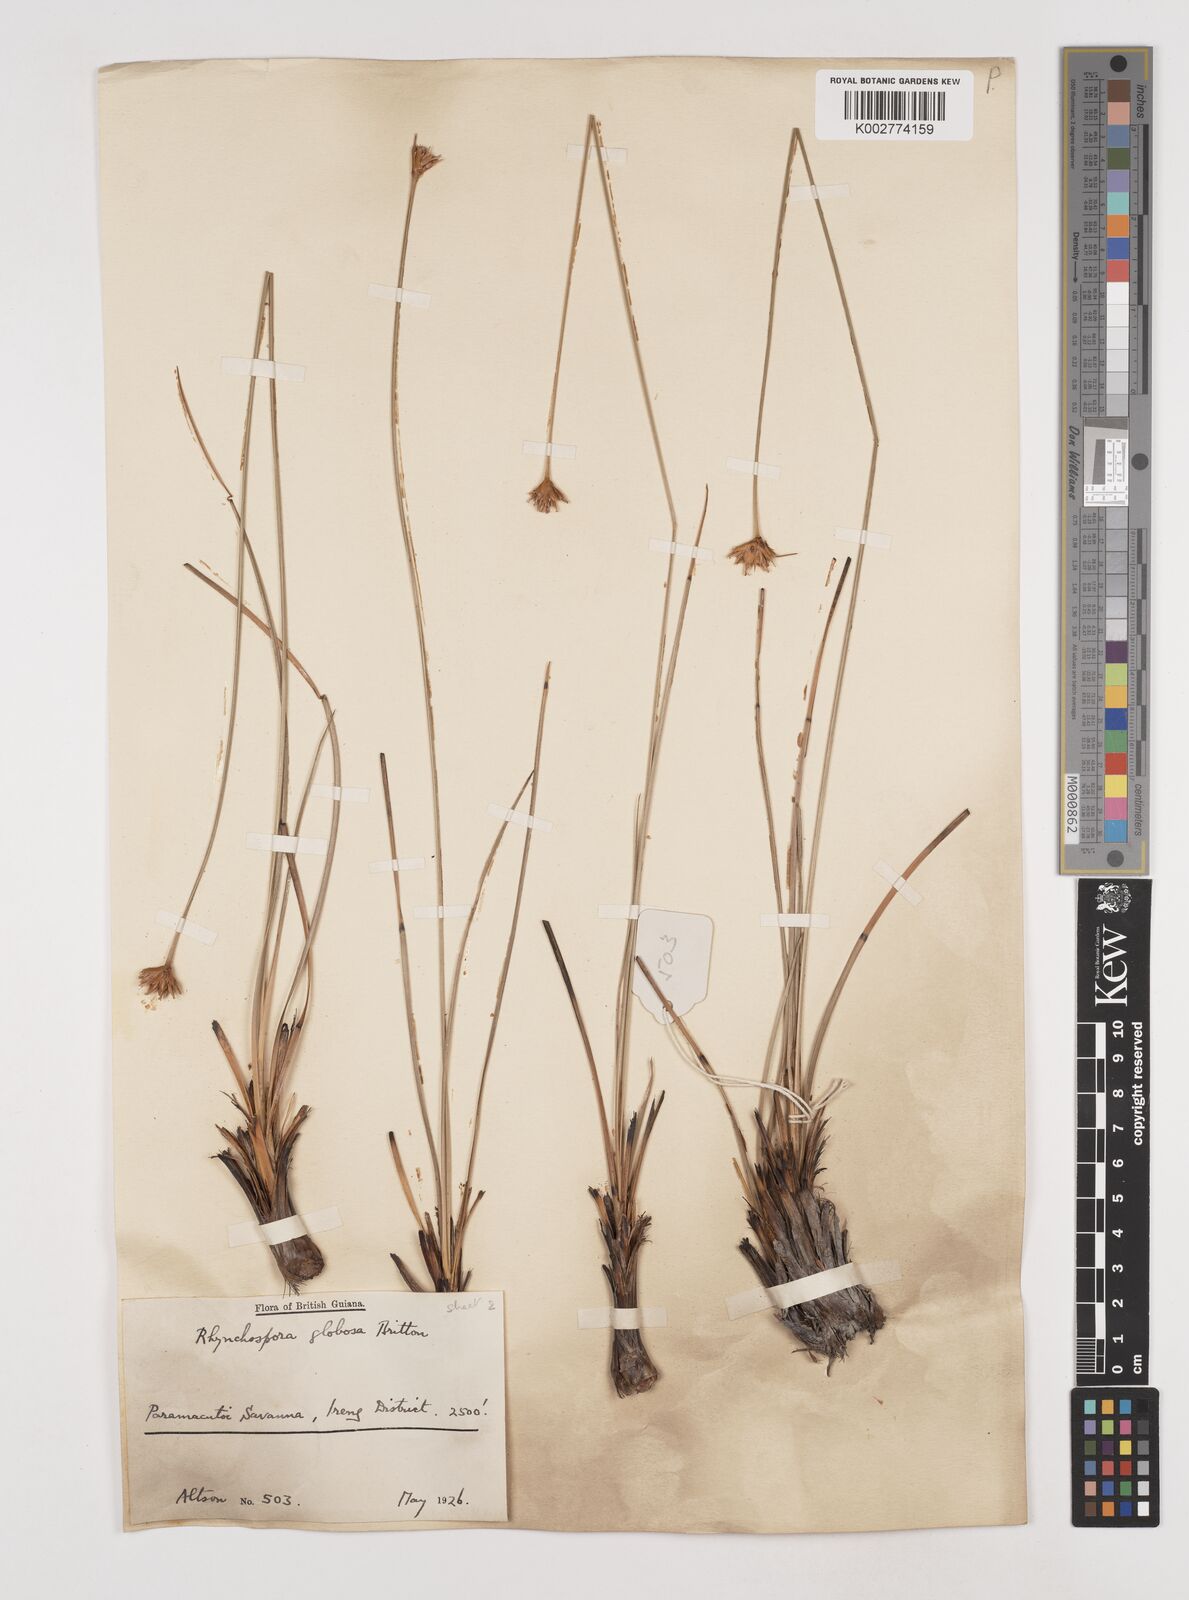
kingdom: Plantae
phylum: Tracheophyta
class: Liliopsida
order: Poales
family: Cyperaceae
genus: Rhynchospora
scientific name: Rhynchospora globosa
